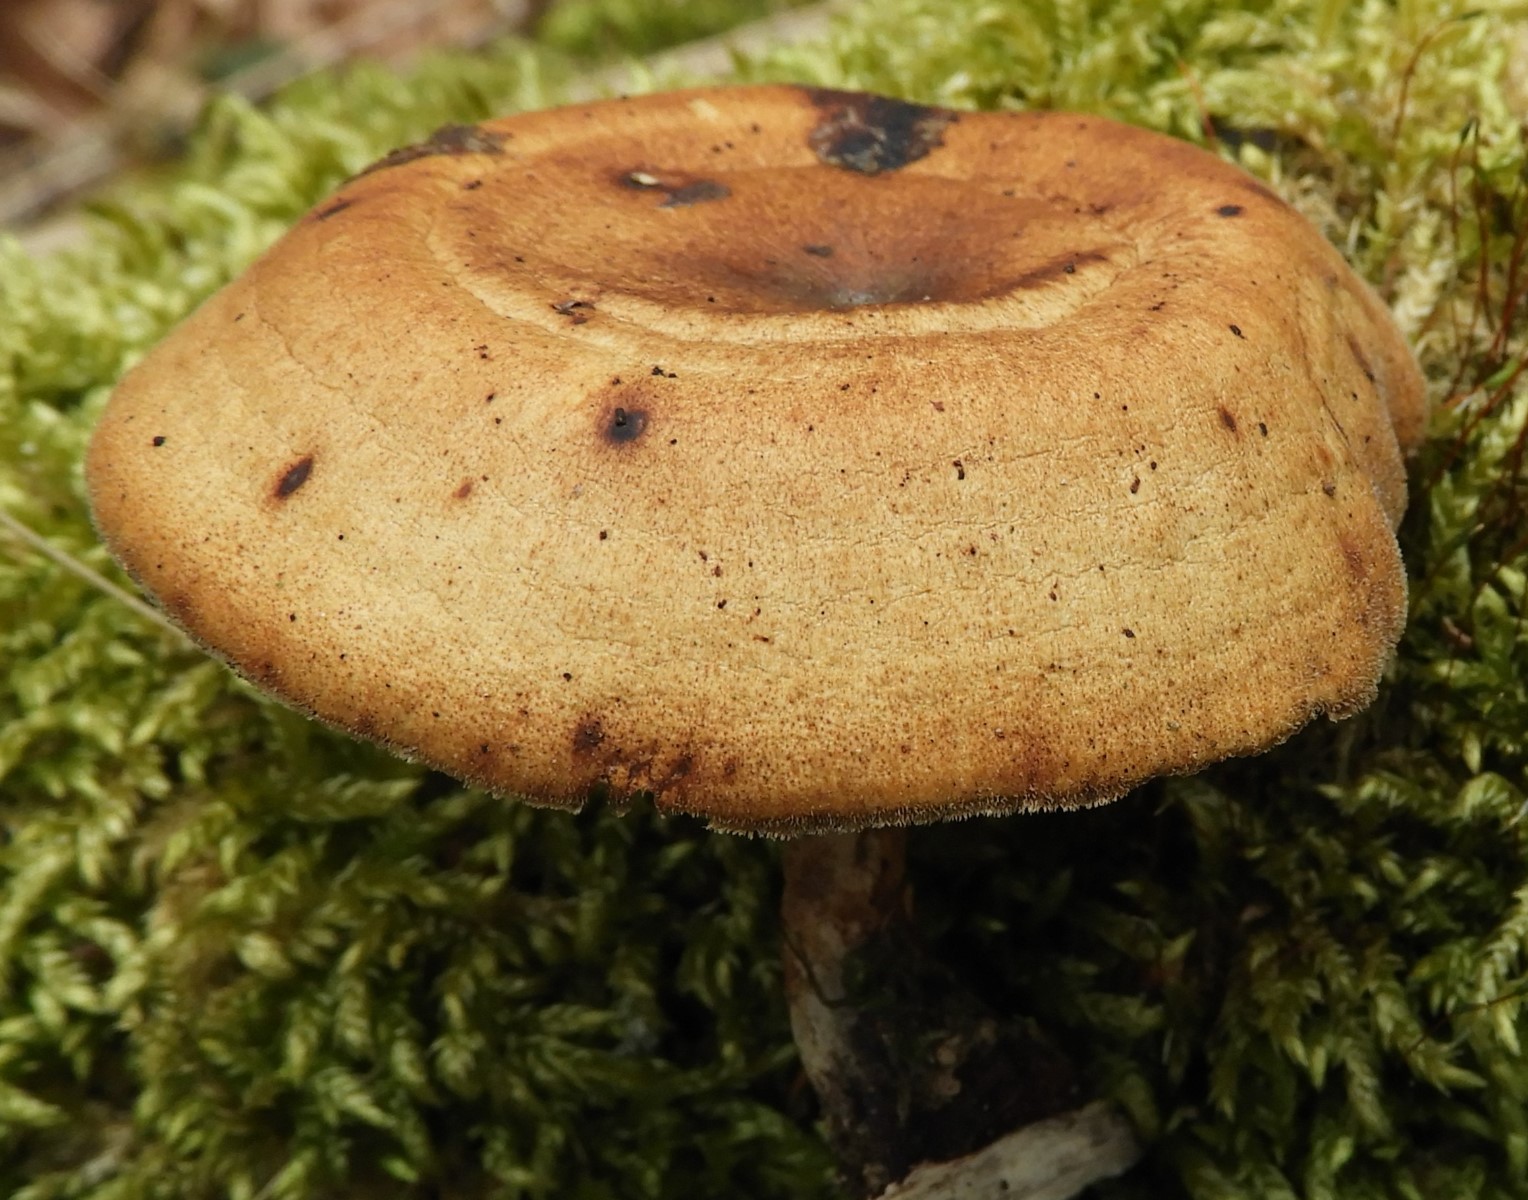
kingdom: Fungi
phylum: Basidiomycota
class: Agaricomycetes
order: Polyporales
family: Polyporaceae
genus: Lentinus
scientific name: Lentinus brumalis
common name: vinter-stilkporesvamp
